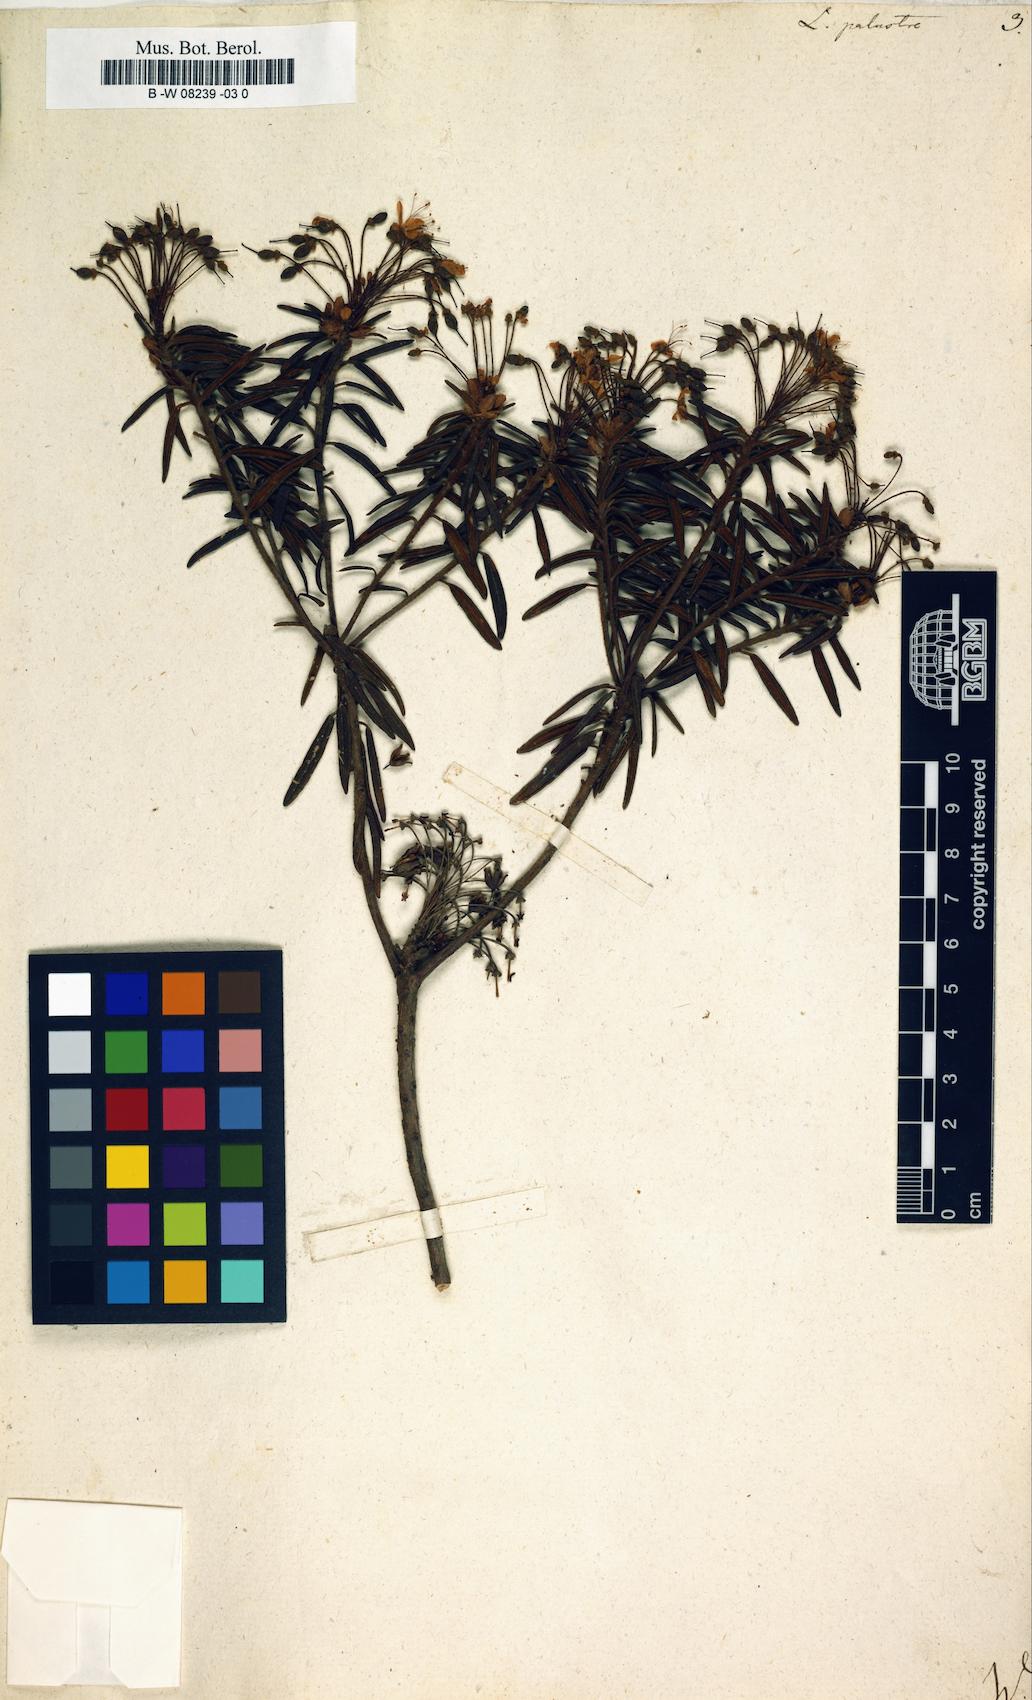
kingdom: Plantae
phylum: Tracheophyta
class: Magnoliopsida
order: Ericales
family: Ericaceae
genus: Rhododendron
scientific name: Rhododendron tomentosum
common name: Marsh labrador tea
